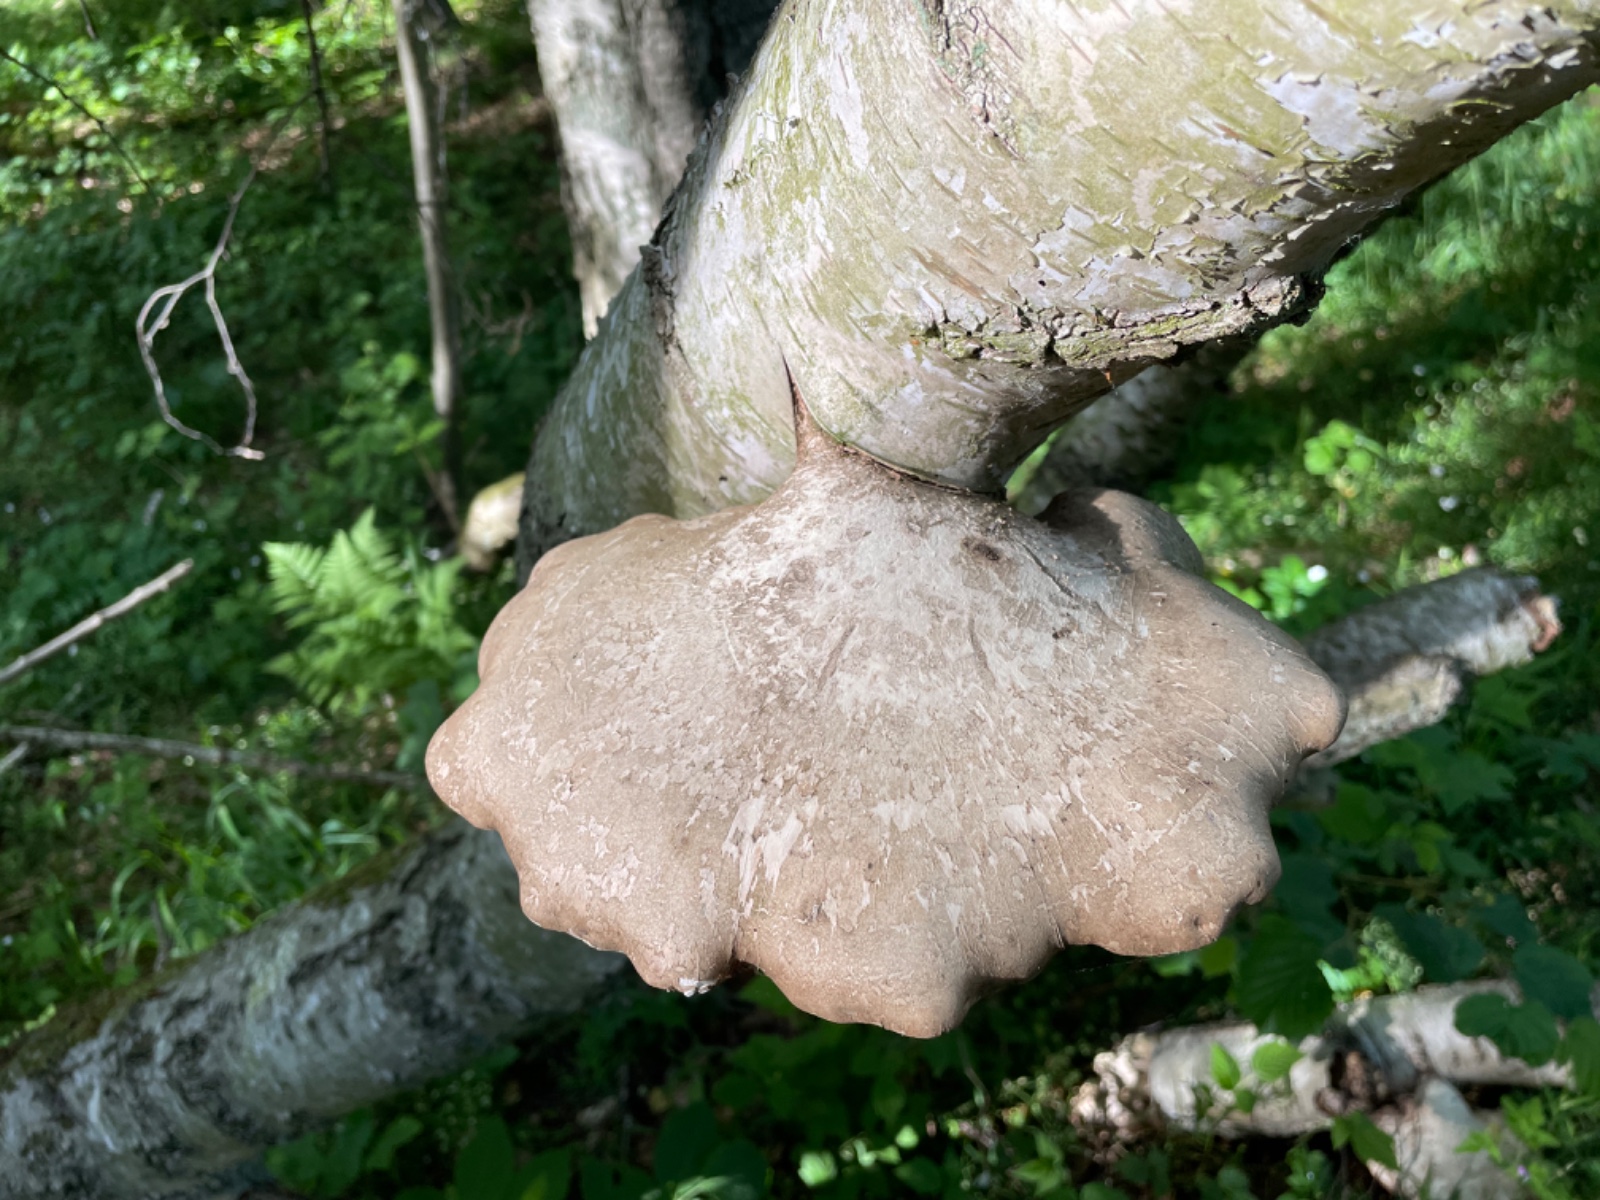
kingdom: Fungi
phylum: Basidiomycota
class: Agaricomycetes
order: Polyporales
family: Fomitopsidaceae
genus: Fomitopsis
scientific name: Fomitopsis betulina
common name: birkeporesvamp
